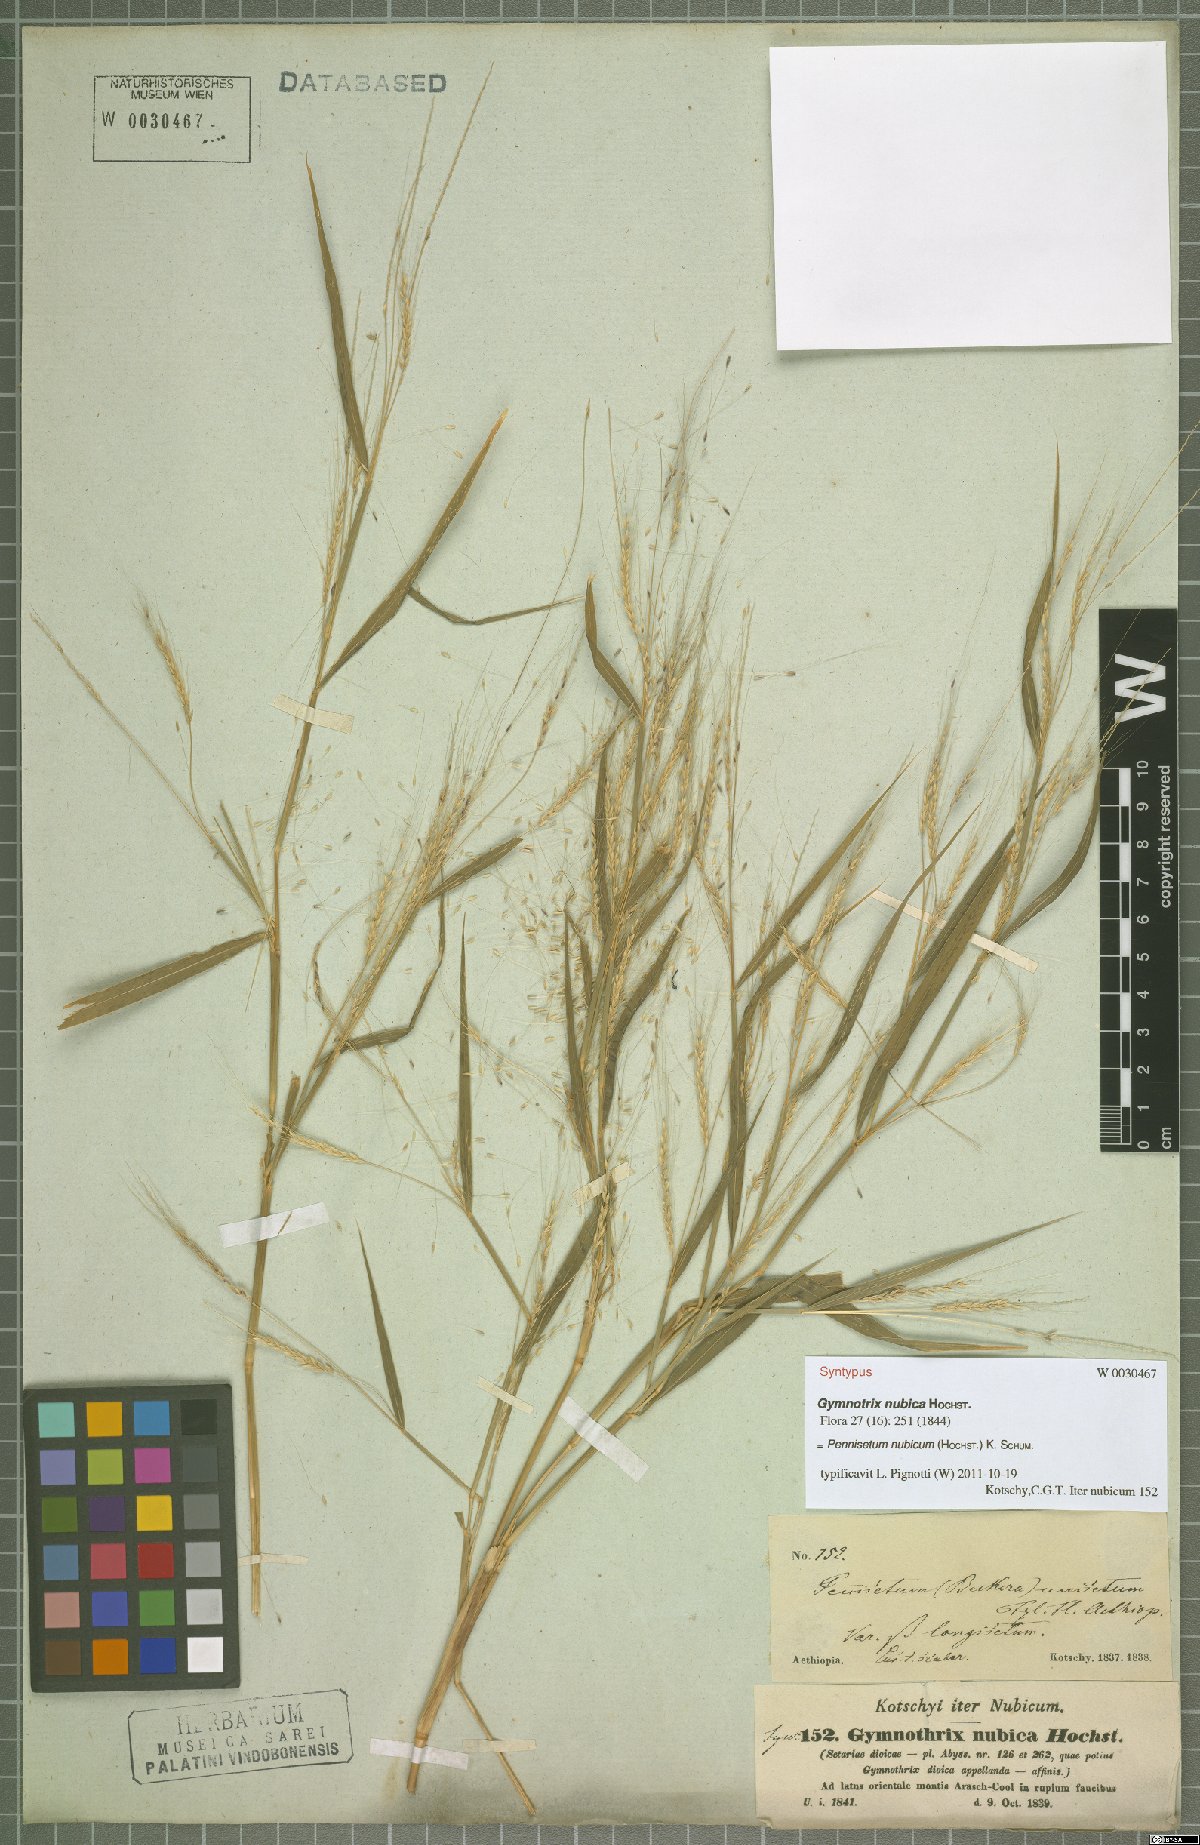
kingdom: Plantae
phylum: Tracheophyta
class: Liliopsida
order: Asparagales
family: Orchidaceae
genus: Habenaria
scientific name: Habenaria cryptophila
